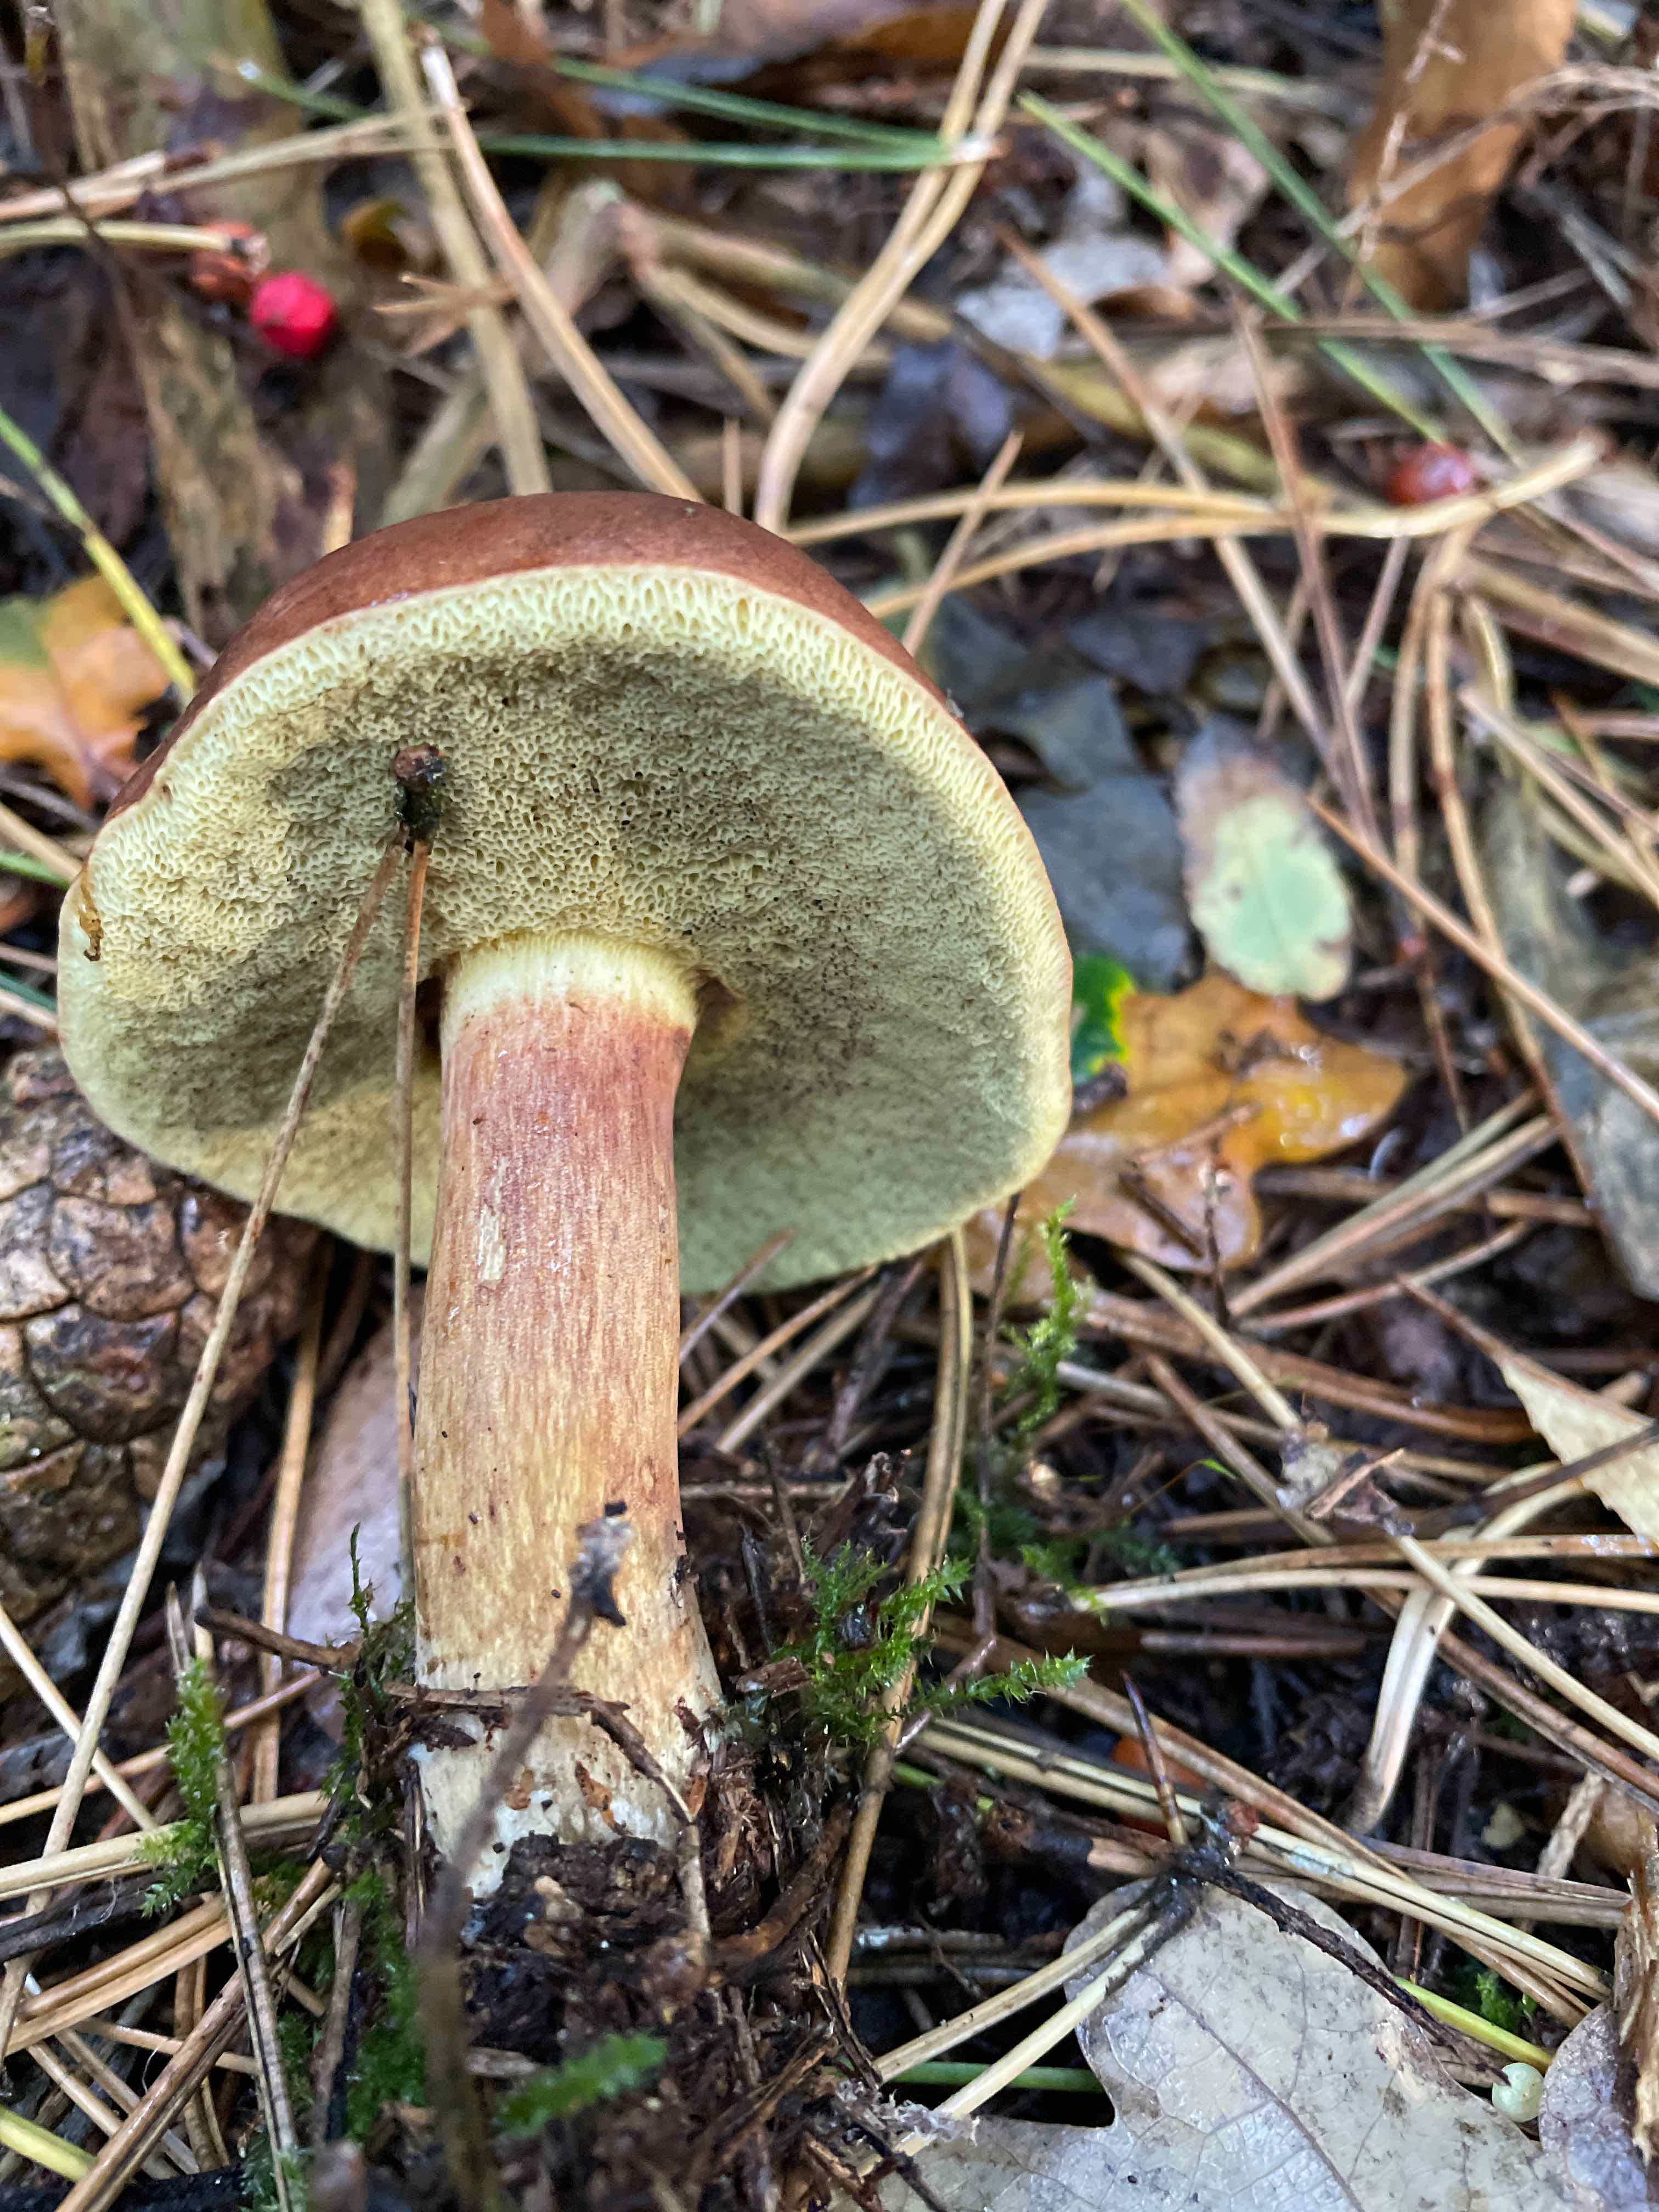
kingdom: Fungi
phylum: Basidiomycota
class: Agaricomycetes
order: Boletales
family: Boletaceae
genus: Imleria
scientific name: Imleria badia
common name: brunstokket rørhat
